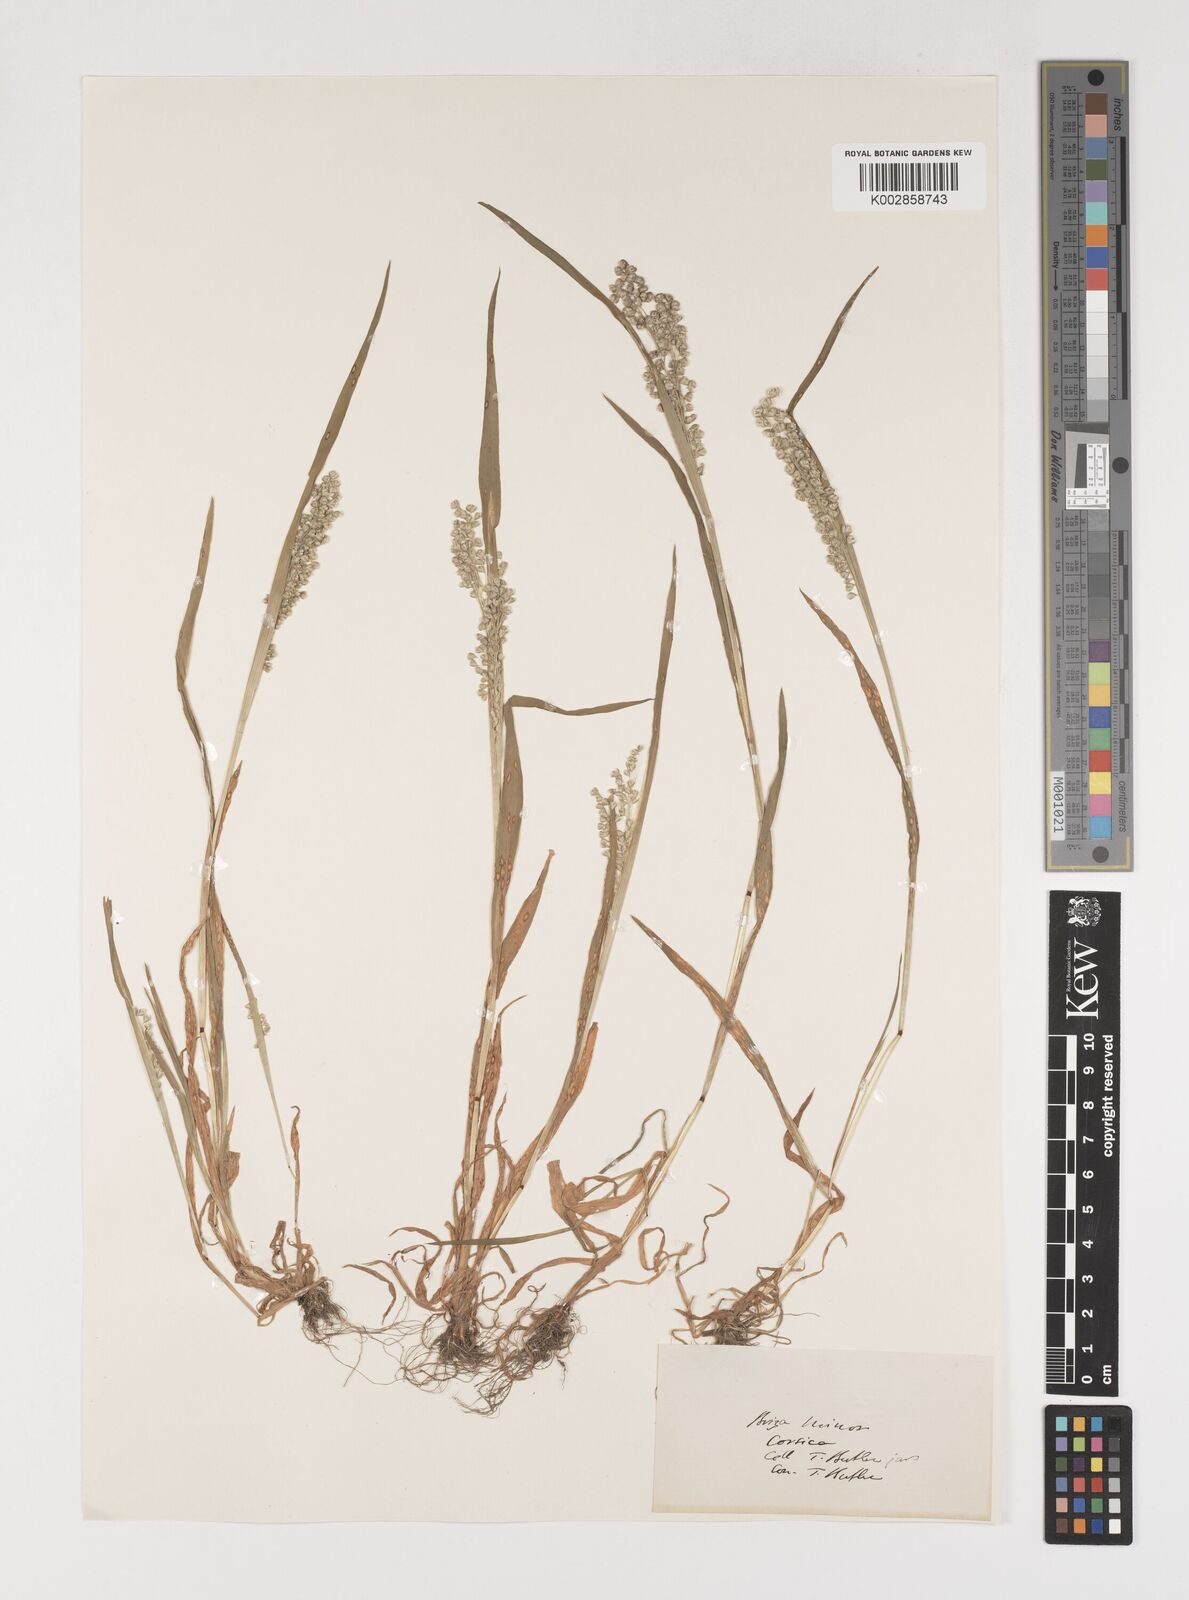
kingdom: Plantae
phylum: Tracheophyta
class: Liliopsida
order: Poales
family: Poaceae
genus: Briza
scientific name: Briza minor
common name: Lesser quaking-grass
